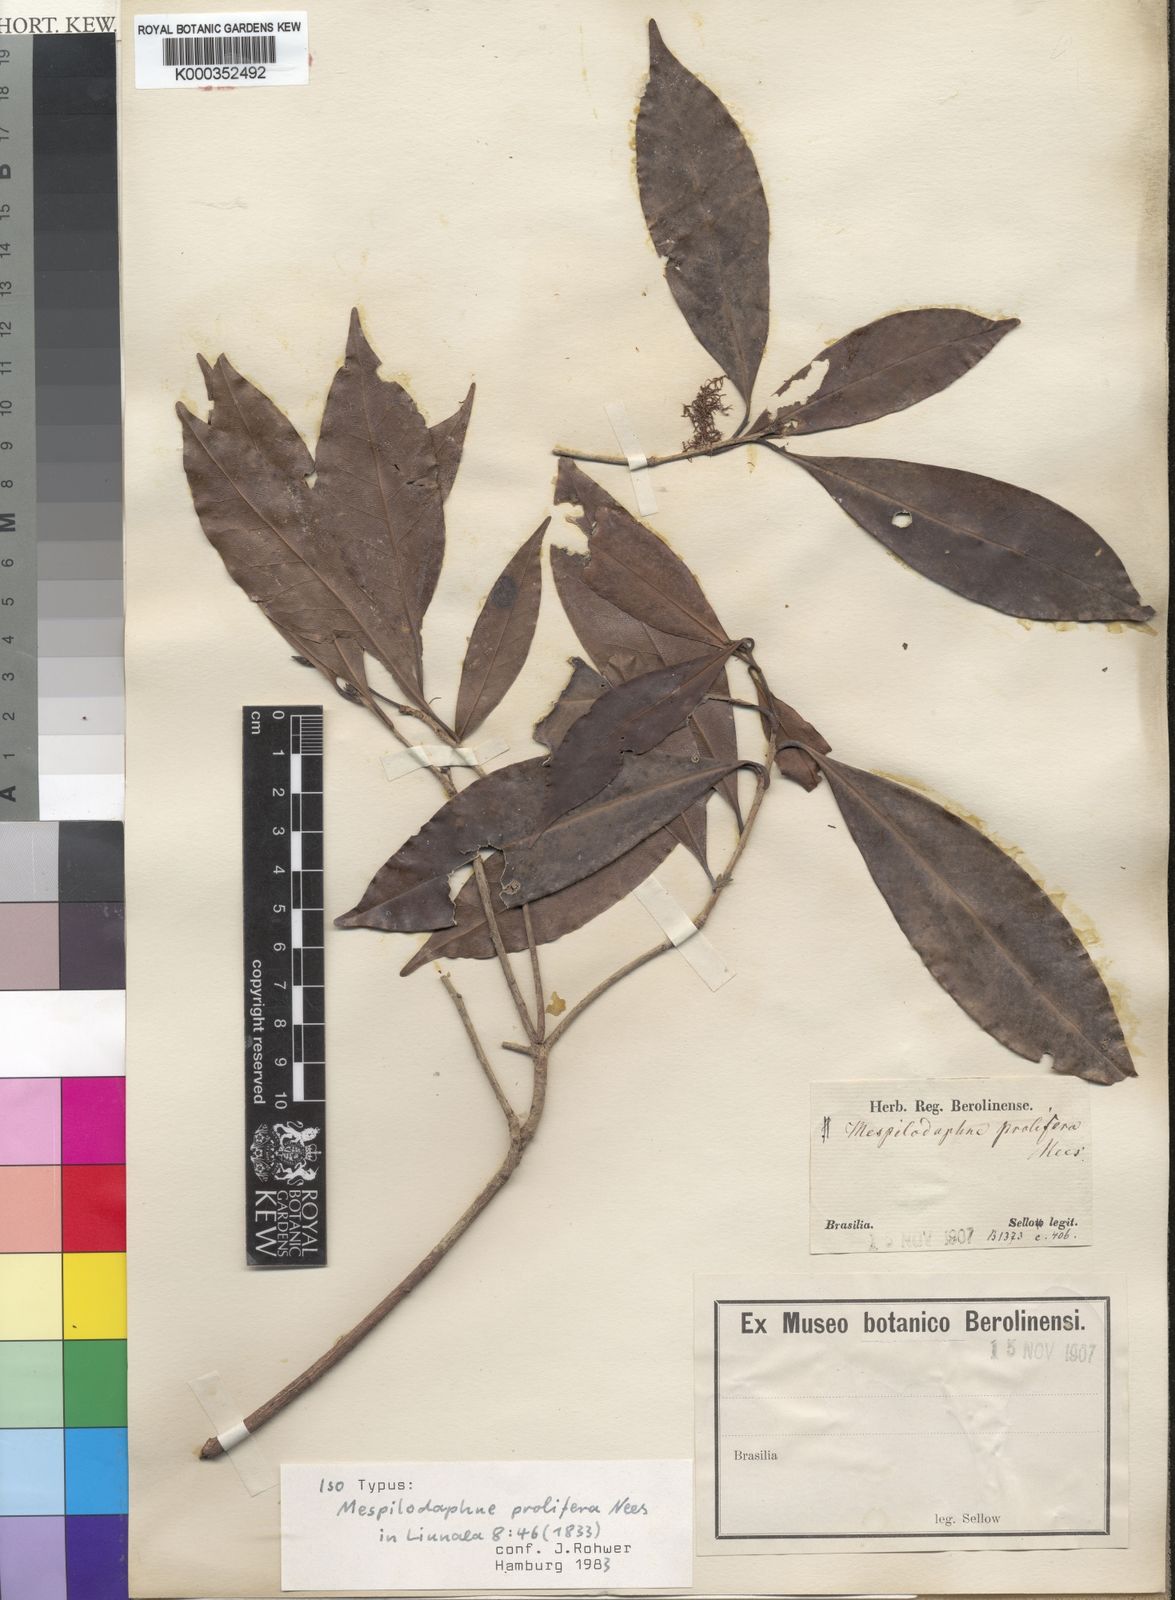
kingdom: Plantae
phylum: Tracheophyta
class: Magnoliopsida
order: Laurales
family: Lauraceae
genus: Mespilodaphne
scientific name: Mespilodaphne prolifera
